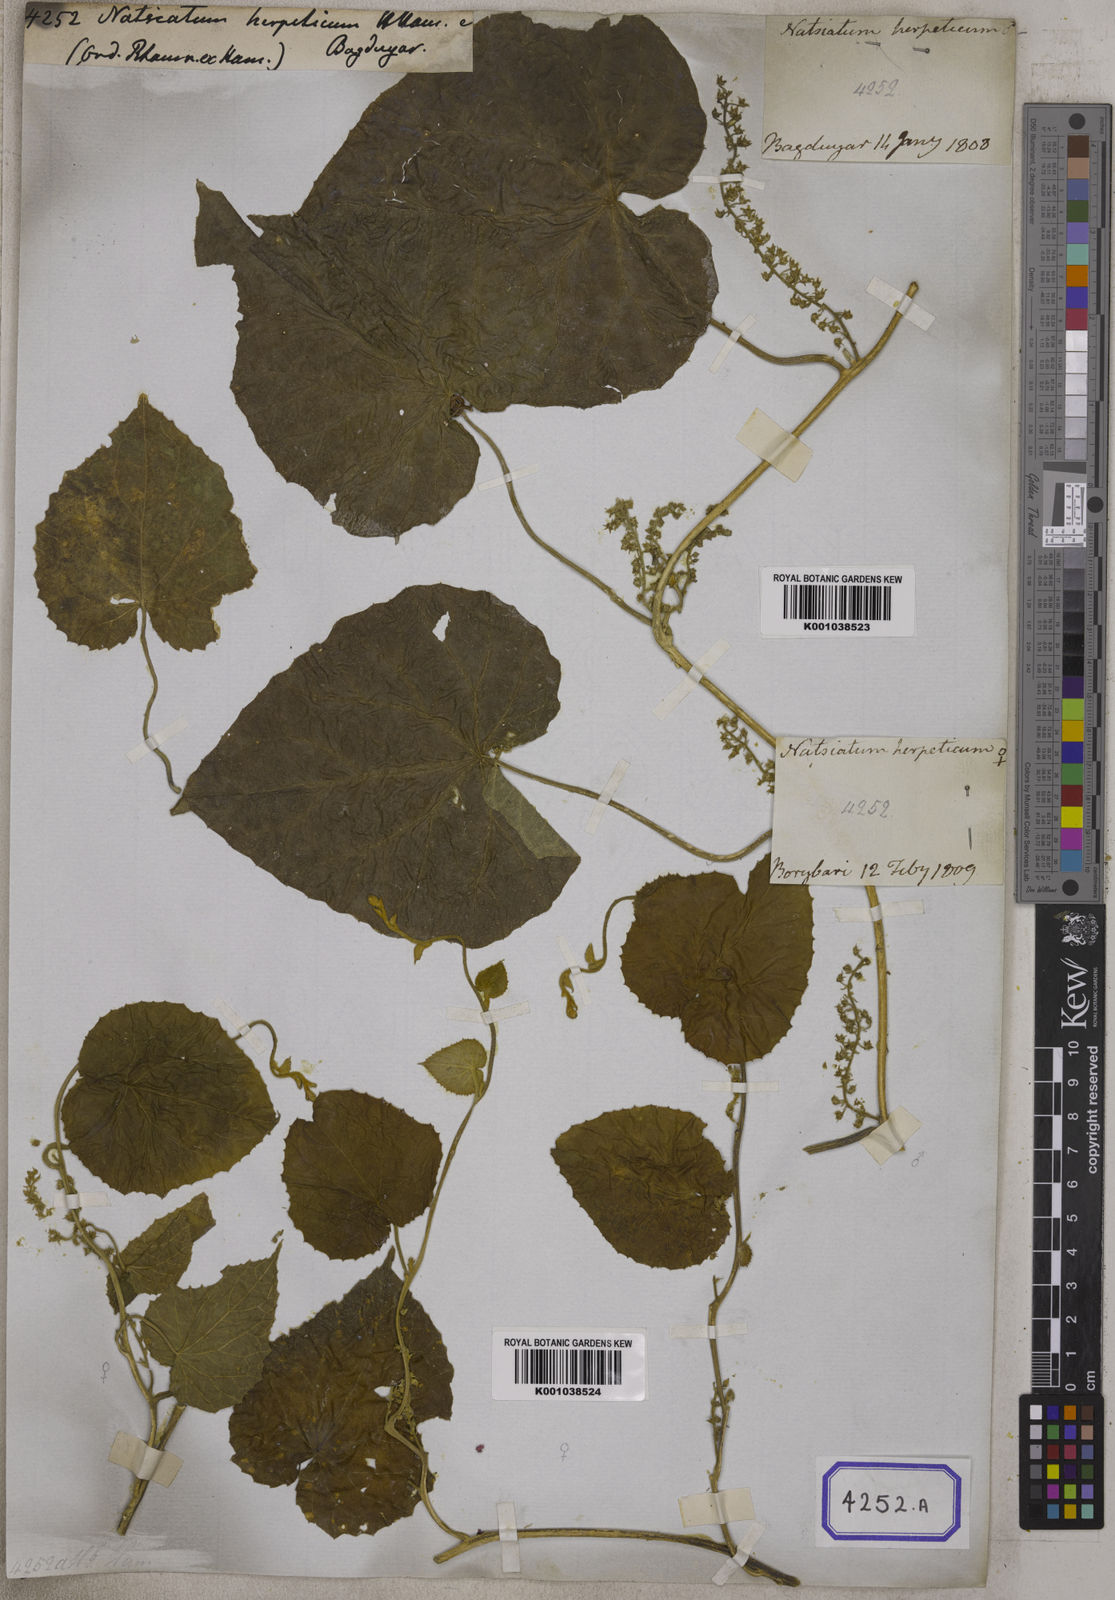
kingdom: Plantae
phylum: Tracheophyta
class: Magnoliopsida
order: Icacinales
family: Icacinaceae
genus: Natsiatum
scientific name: Natsiatum
